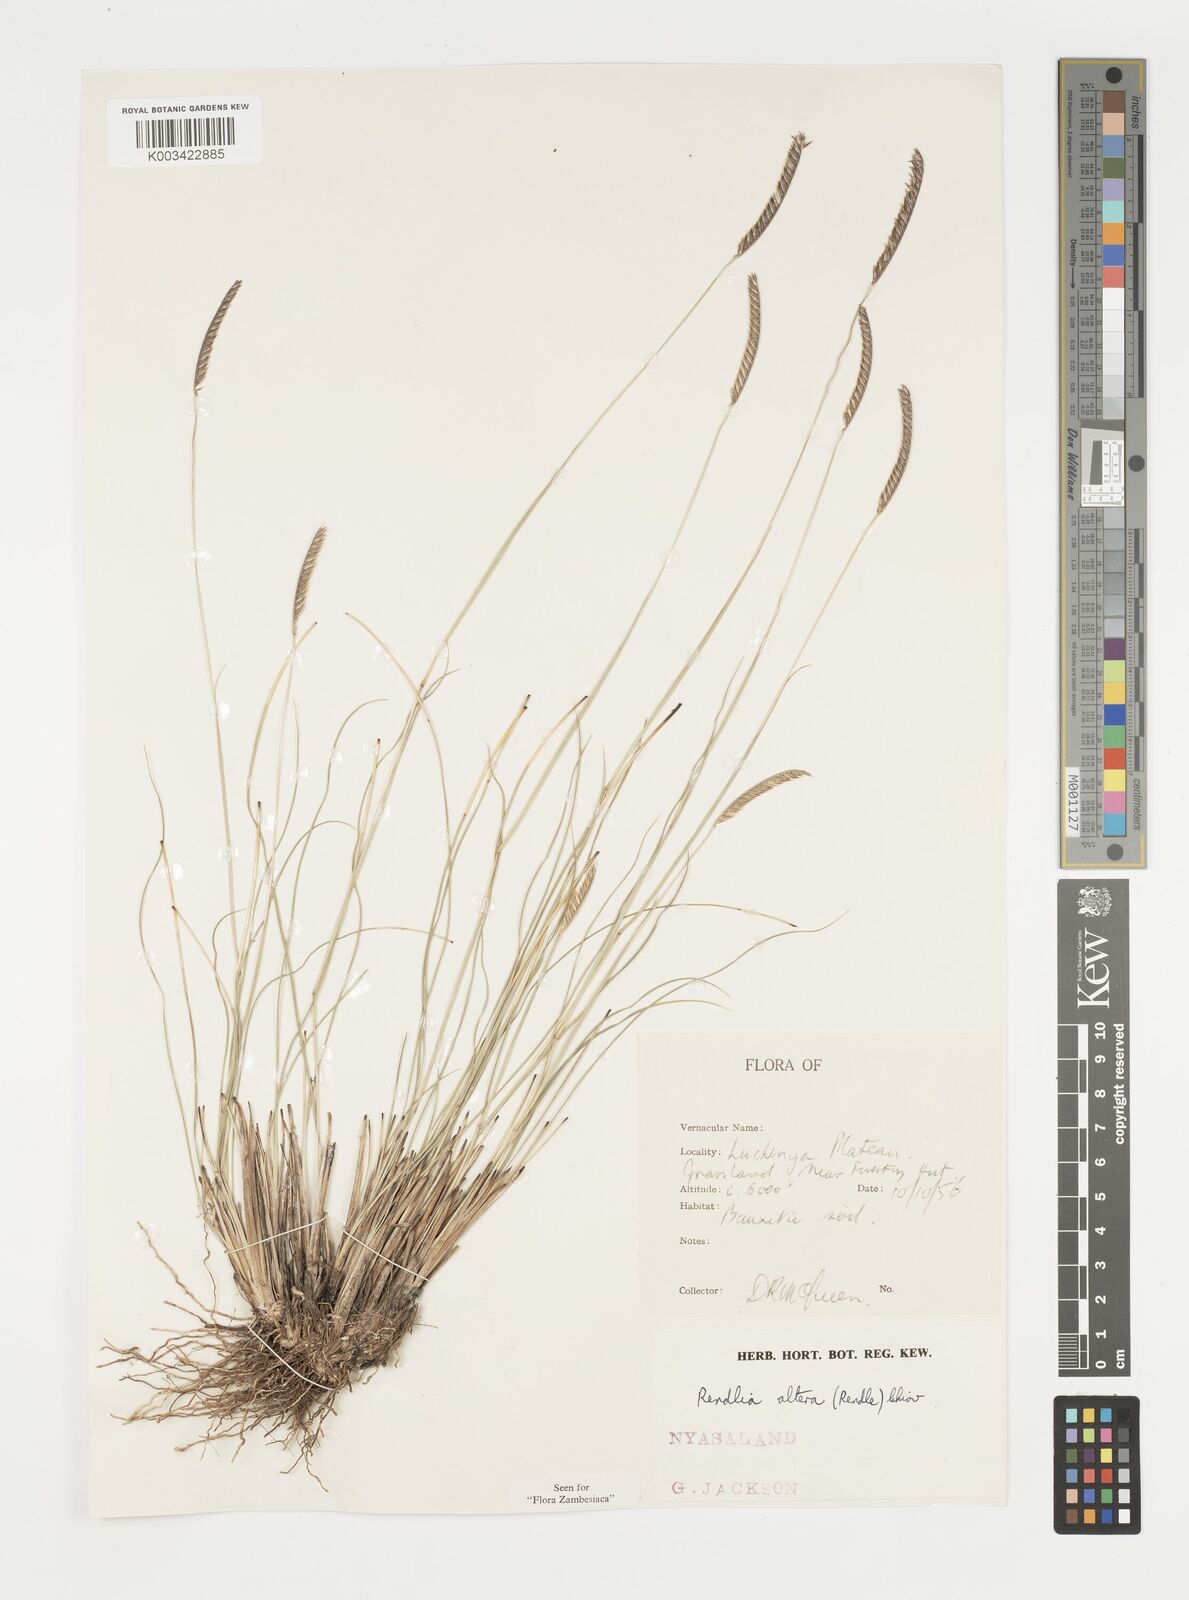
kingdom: Plantae
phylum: Tracheophyta
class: Liliopsida
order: Poales
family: Poaceae
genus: Microchloa
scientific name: Microchloa altera
